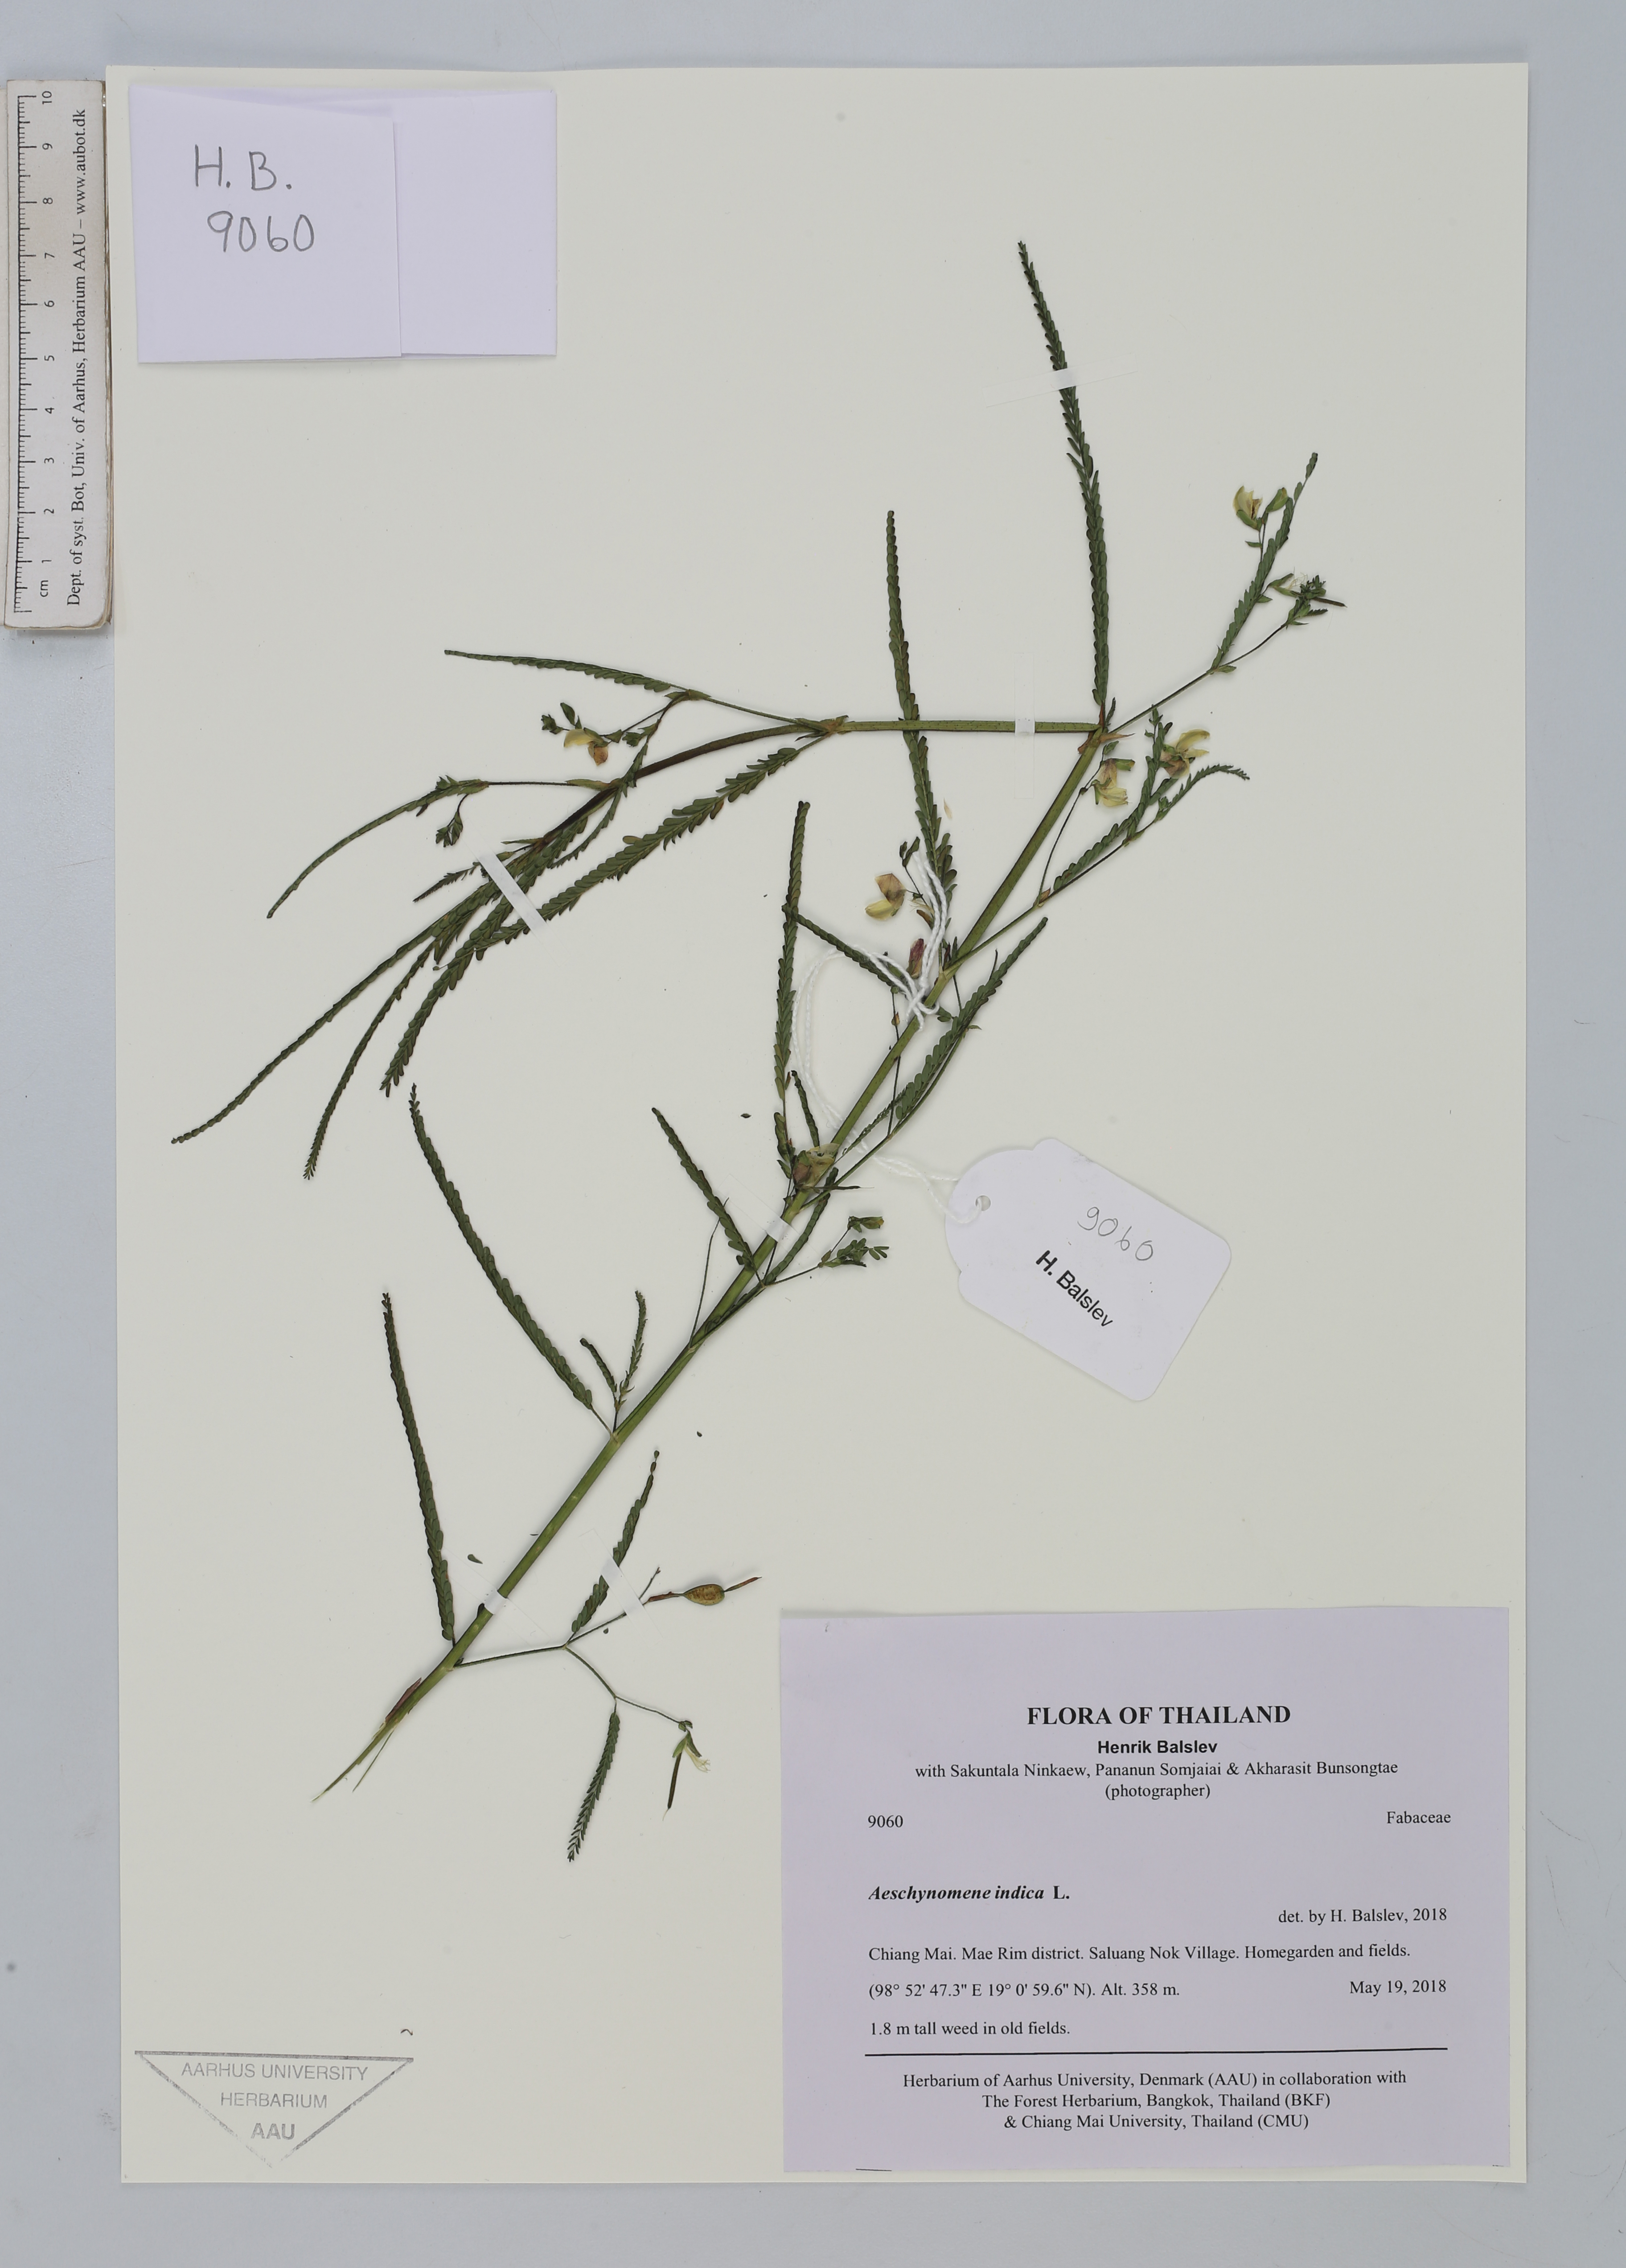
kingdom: Plantae
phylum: Tracheophyta
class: Magnoliopsida
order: Fabales
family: Fabaceae
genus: Aeschynomene
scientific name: Aeschynomene indica
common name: Indian jointvetch
